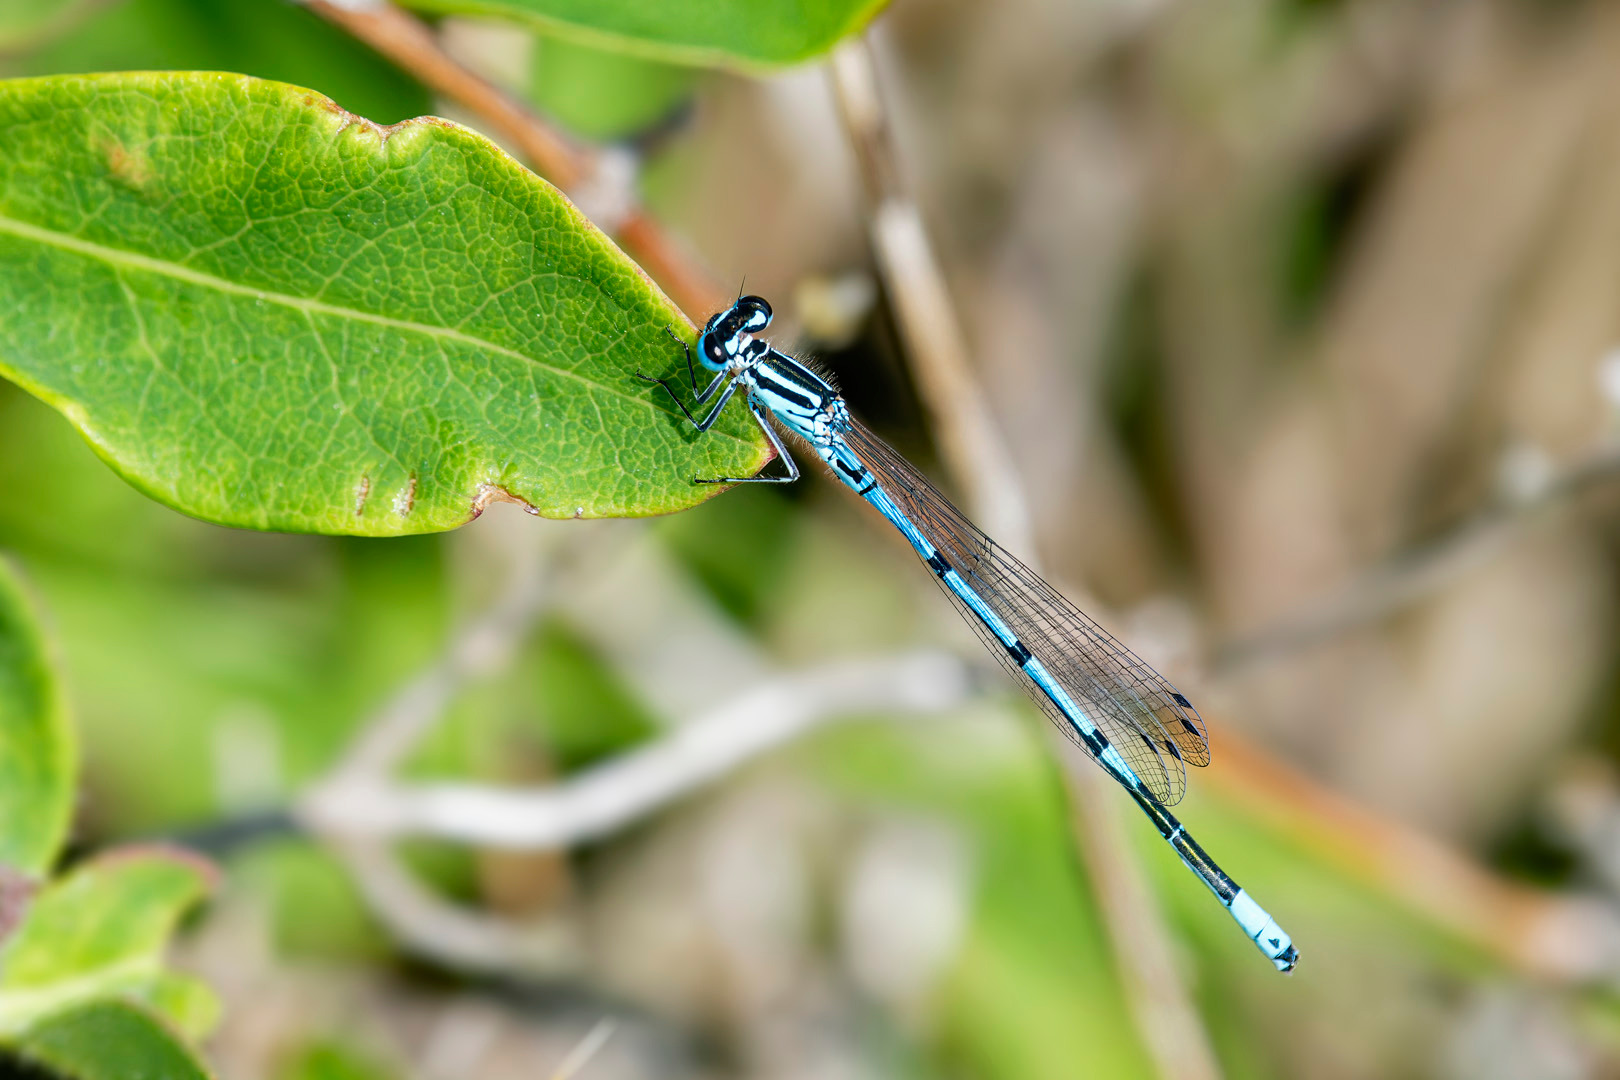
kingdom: Animalia
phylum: Arthropoda
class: Insecta
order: Odonata
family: Coenagrionidae
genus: Coenagrion
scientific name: Coenagrion puella
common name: Hestesko-vandnymfe
